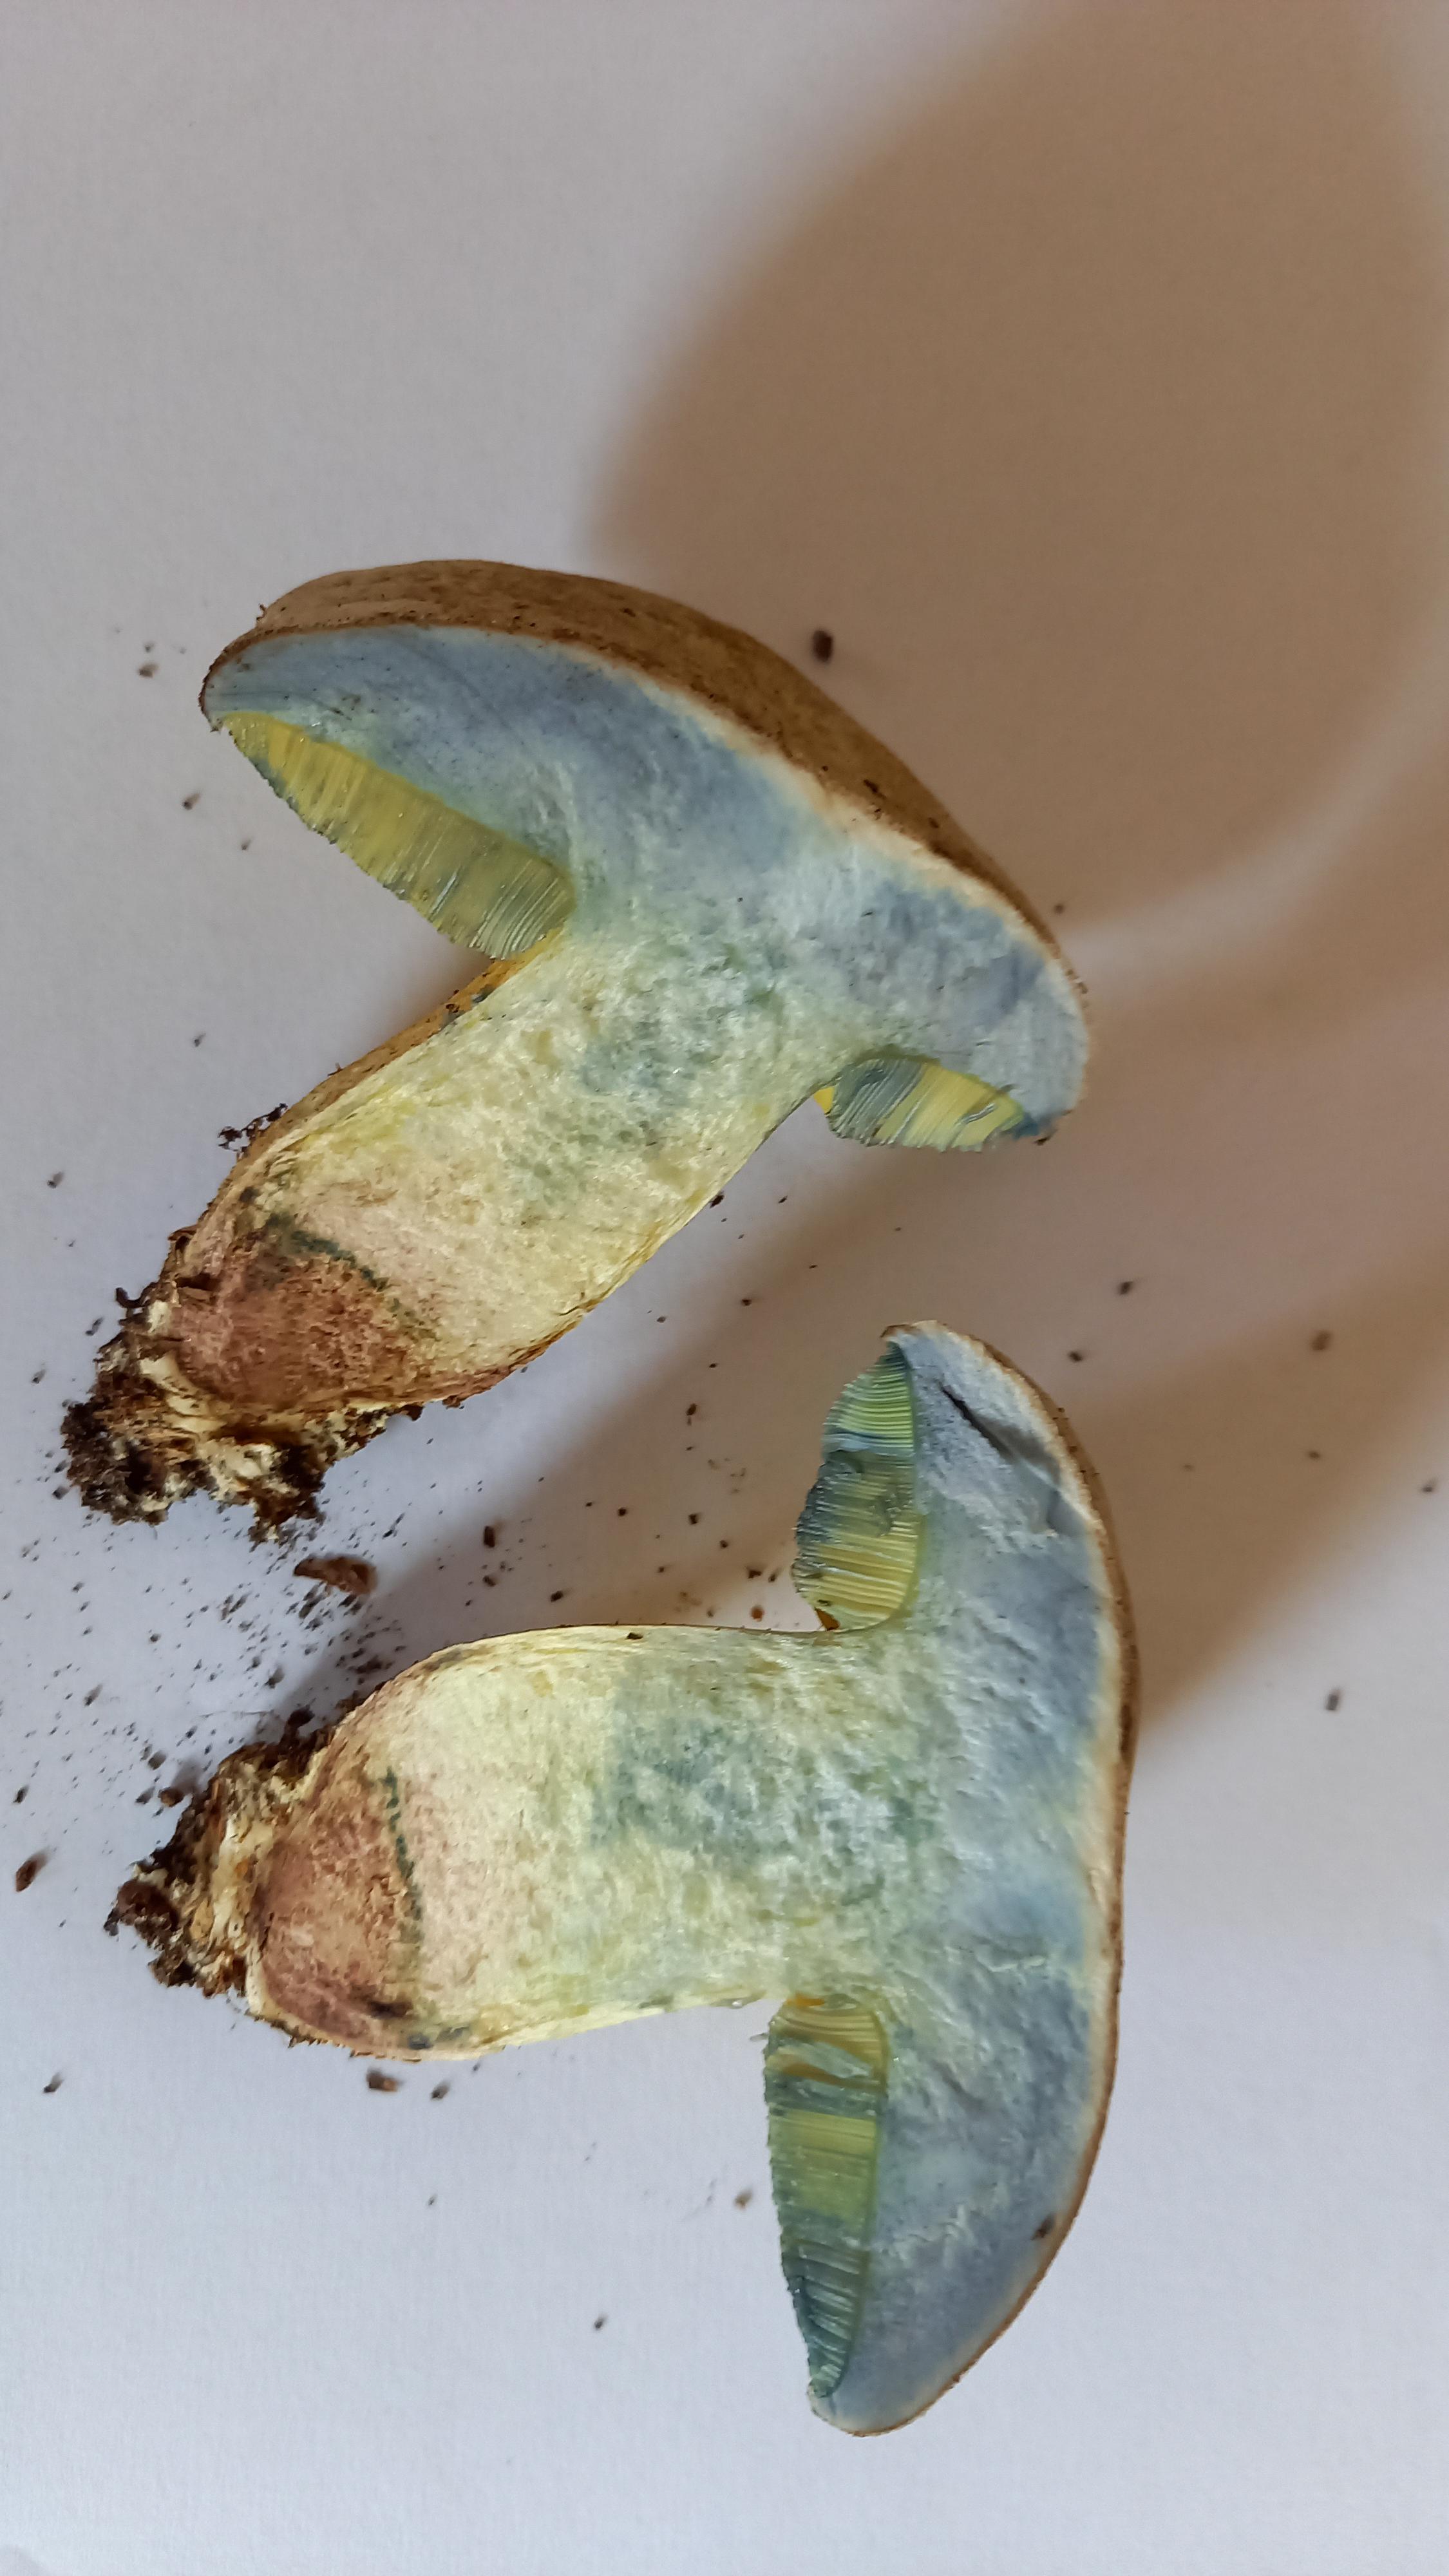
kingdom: Fungi
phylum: Basidiomycota
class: Agaricomycetes
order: Boletales
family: Boletaceae
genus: Caloboletus
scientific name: Caloboletus radicans
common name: rod-rørhat
